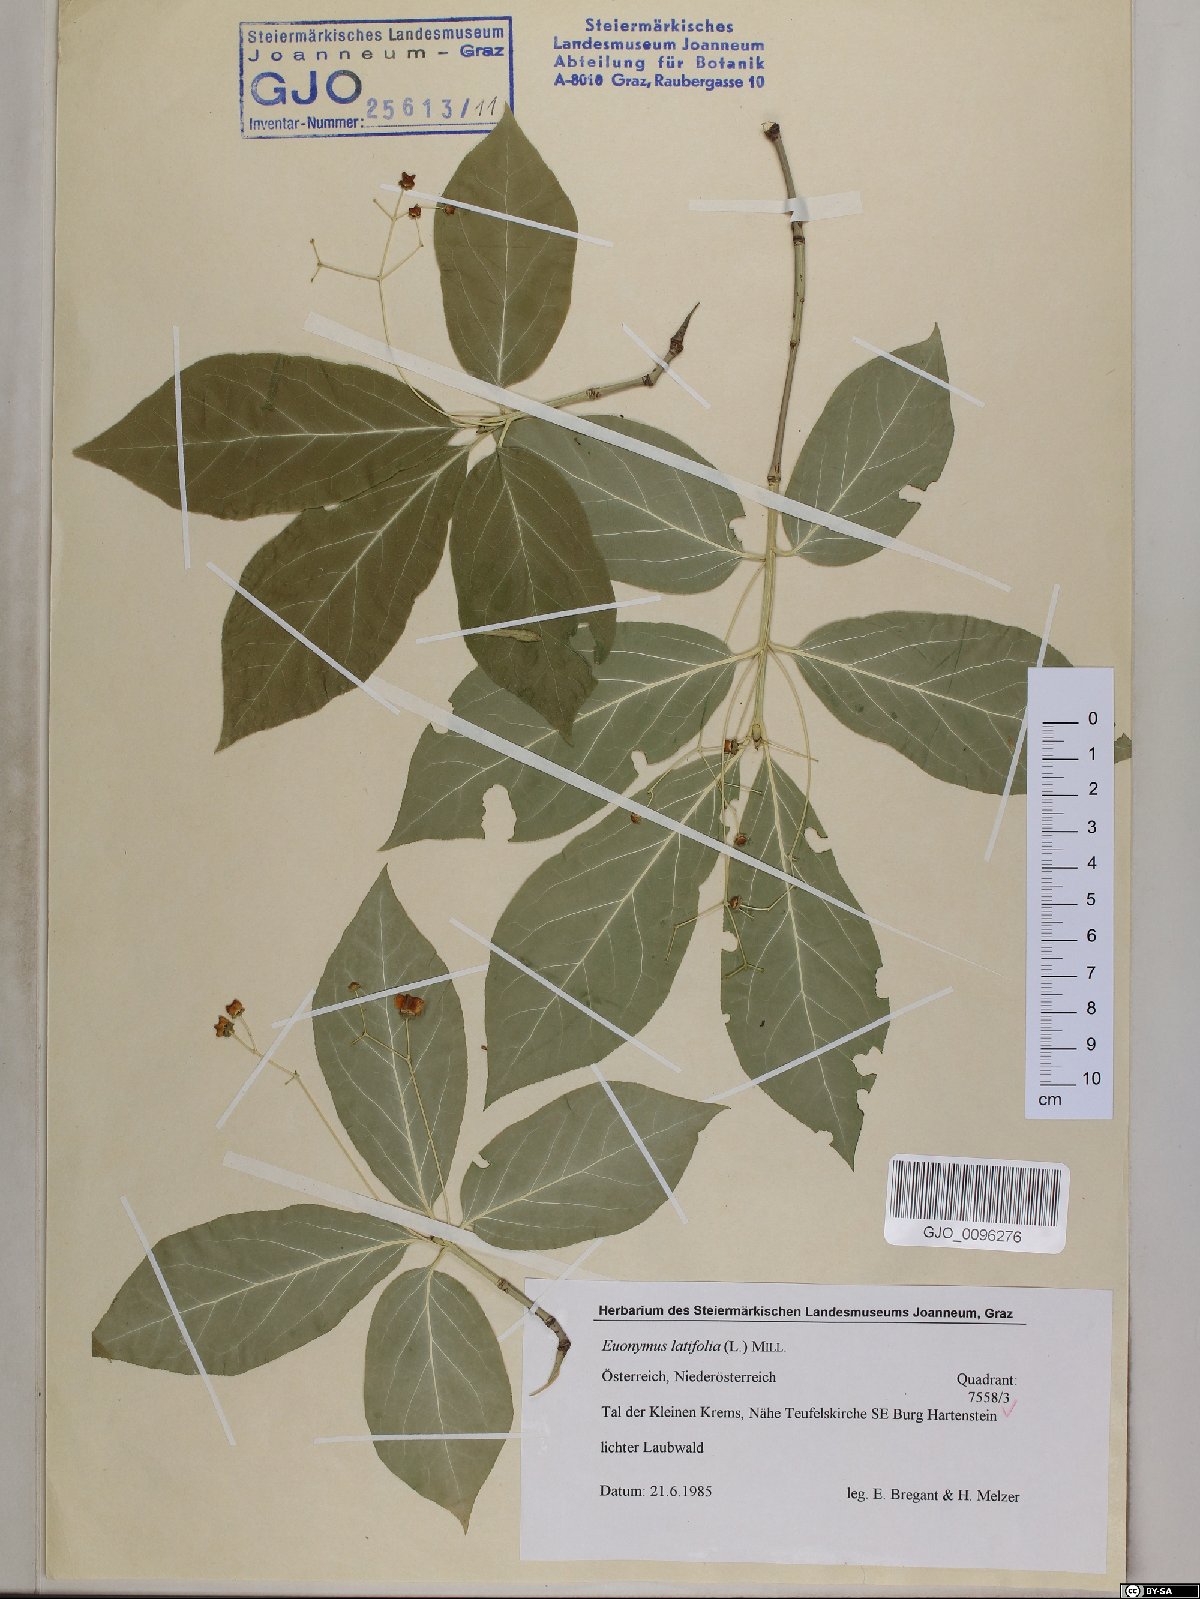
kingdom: Plantae
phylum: Tracheophyta
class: Magnoliopsida
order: Celastrales
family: Celastraceae
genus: Euonymus
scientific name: Euonymus latifolius
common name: Large-leaved spindle
